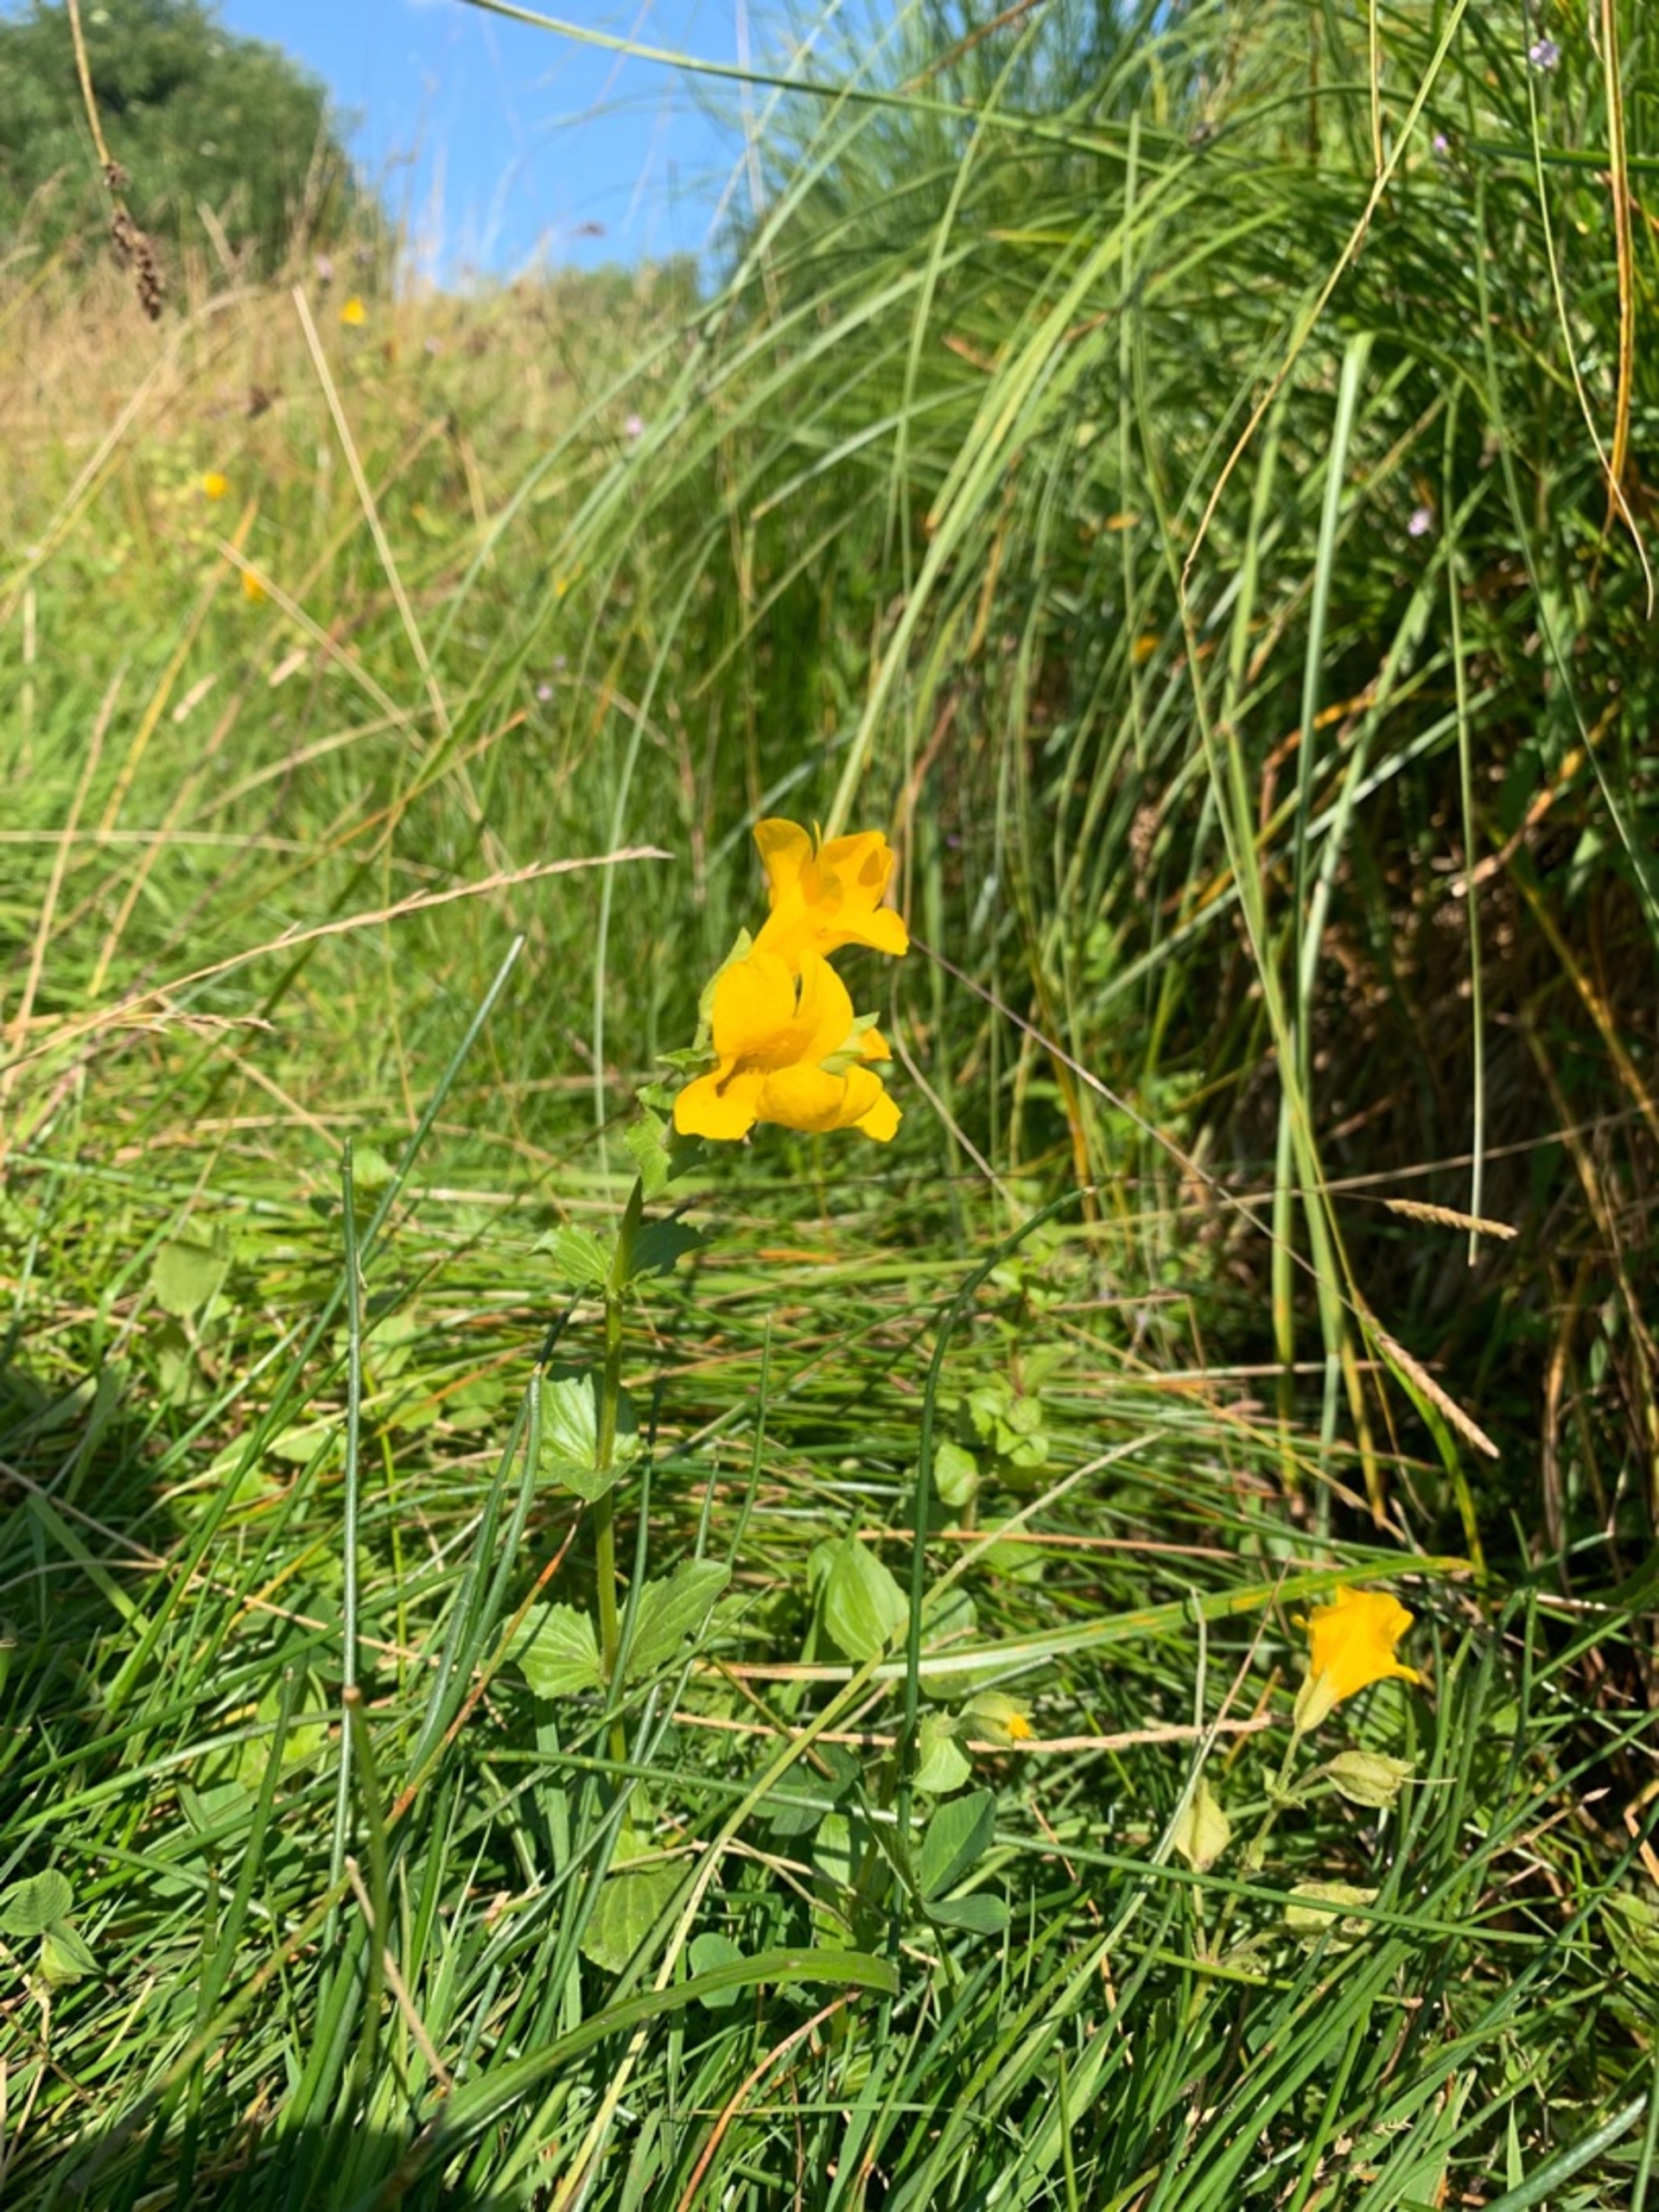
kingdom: Plantae
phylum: Tracheophyta
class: Magnoliopsida
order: Lamiales
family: Phrymaceae
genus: Erythranthe
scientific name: Erythranthe guttata
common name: Abeblomst
